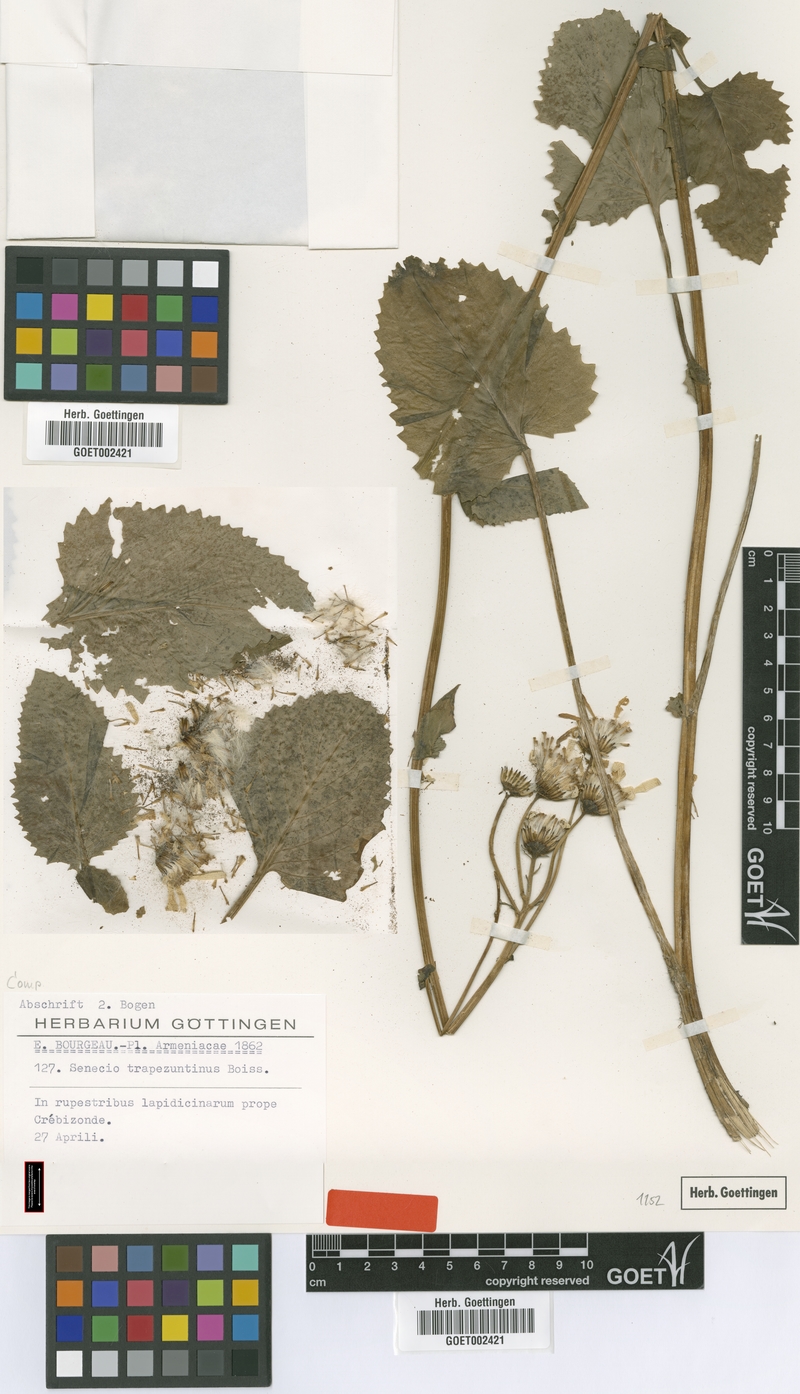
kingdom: Plantae
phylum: Tracheophyta
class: Magnoliopsida
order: Asterales
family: Asteraceae
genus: Jacobaea
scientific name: Jacobaea trapezuntina
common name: Trapezuntian groundsel
